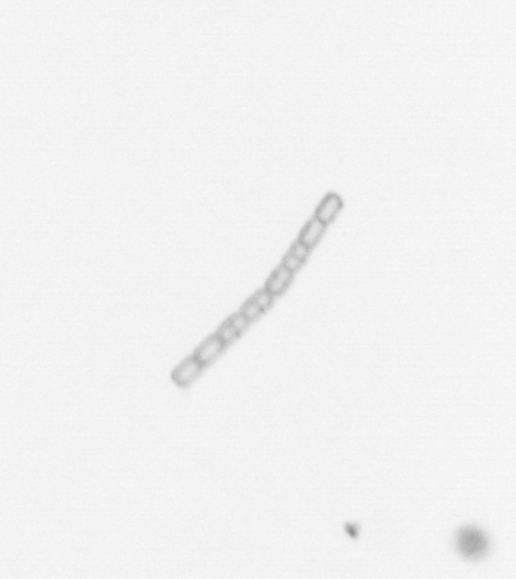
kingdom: Chromista
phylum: Ochrophyta
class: Bacillariophyceae
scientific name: Bacillariophyceae
